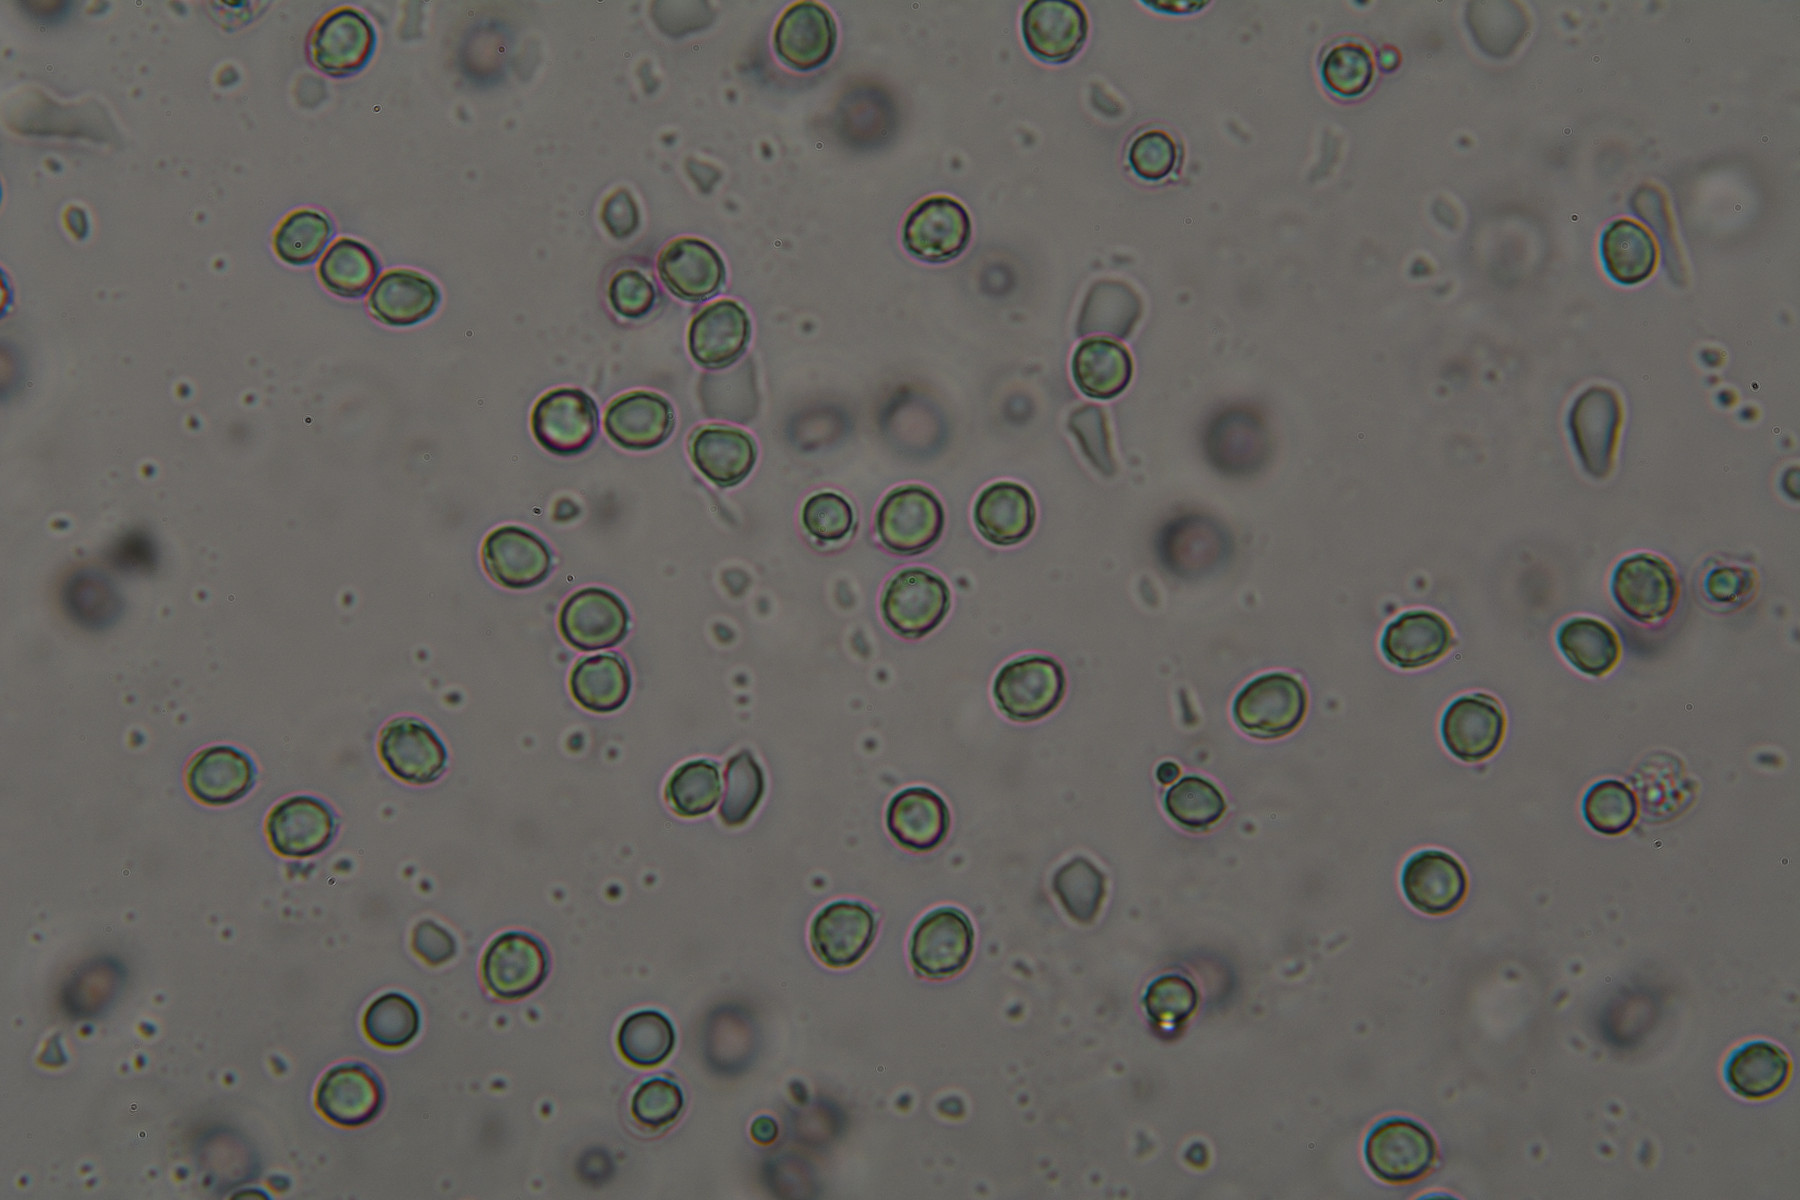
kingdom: Fungi
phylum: Basidiomycota
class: Agaricomycetes
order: Cantharellales
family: Hydnaceae
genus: Hydnum
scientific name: Hydnum rufescens
